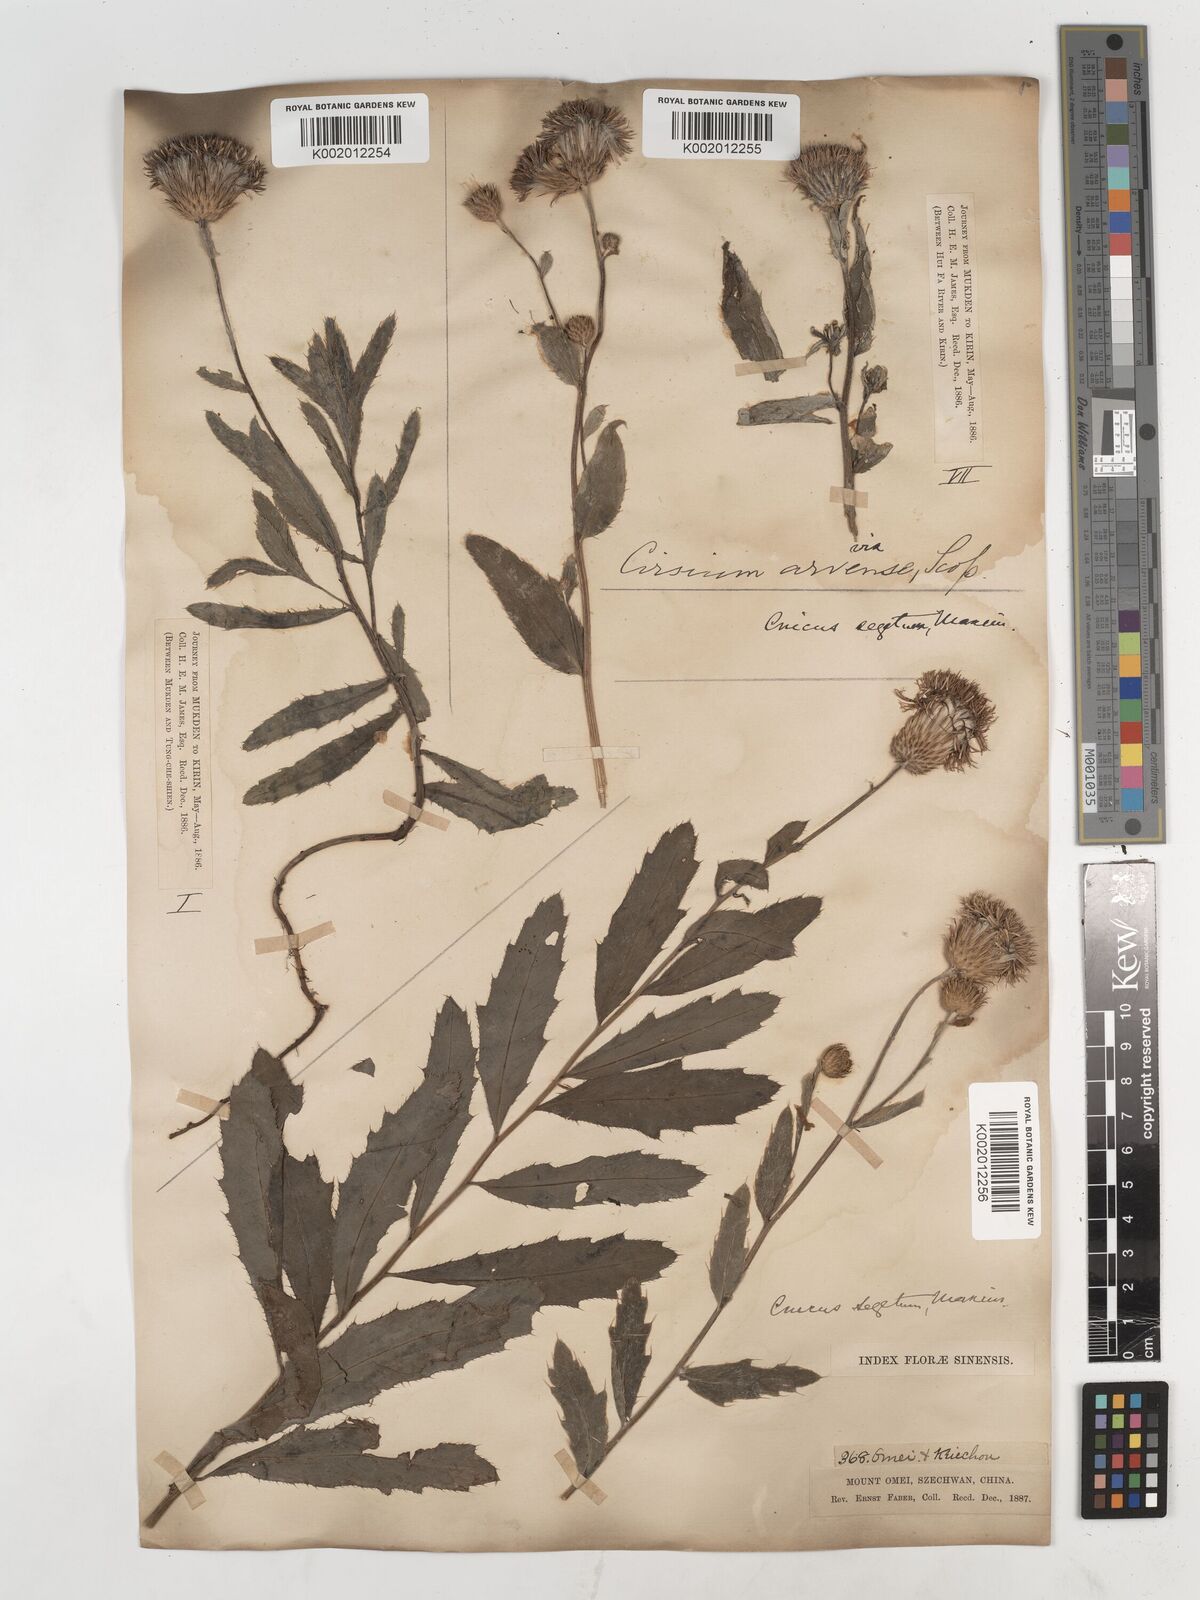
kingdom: Plantae
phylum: Tracheophyta
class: Magnoliopsida
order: Asterales
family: Asteraceae
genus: Cirsium
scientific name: Cirsium arvense
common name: Creeping thistle
